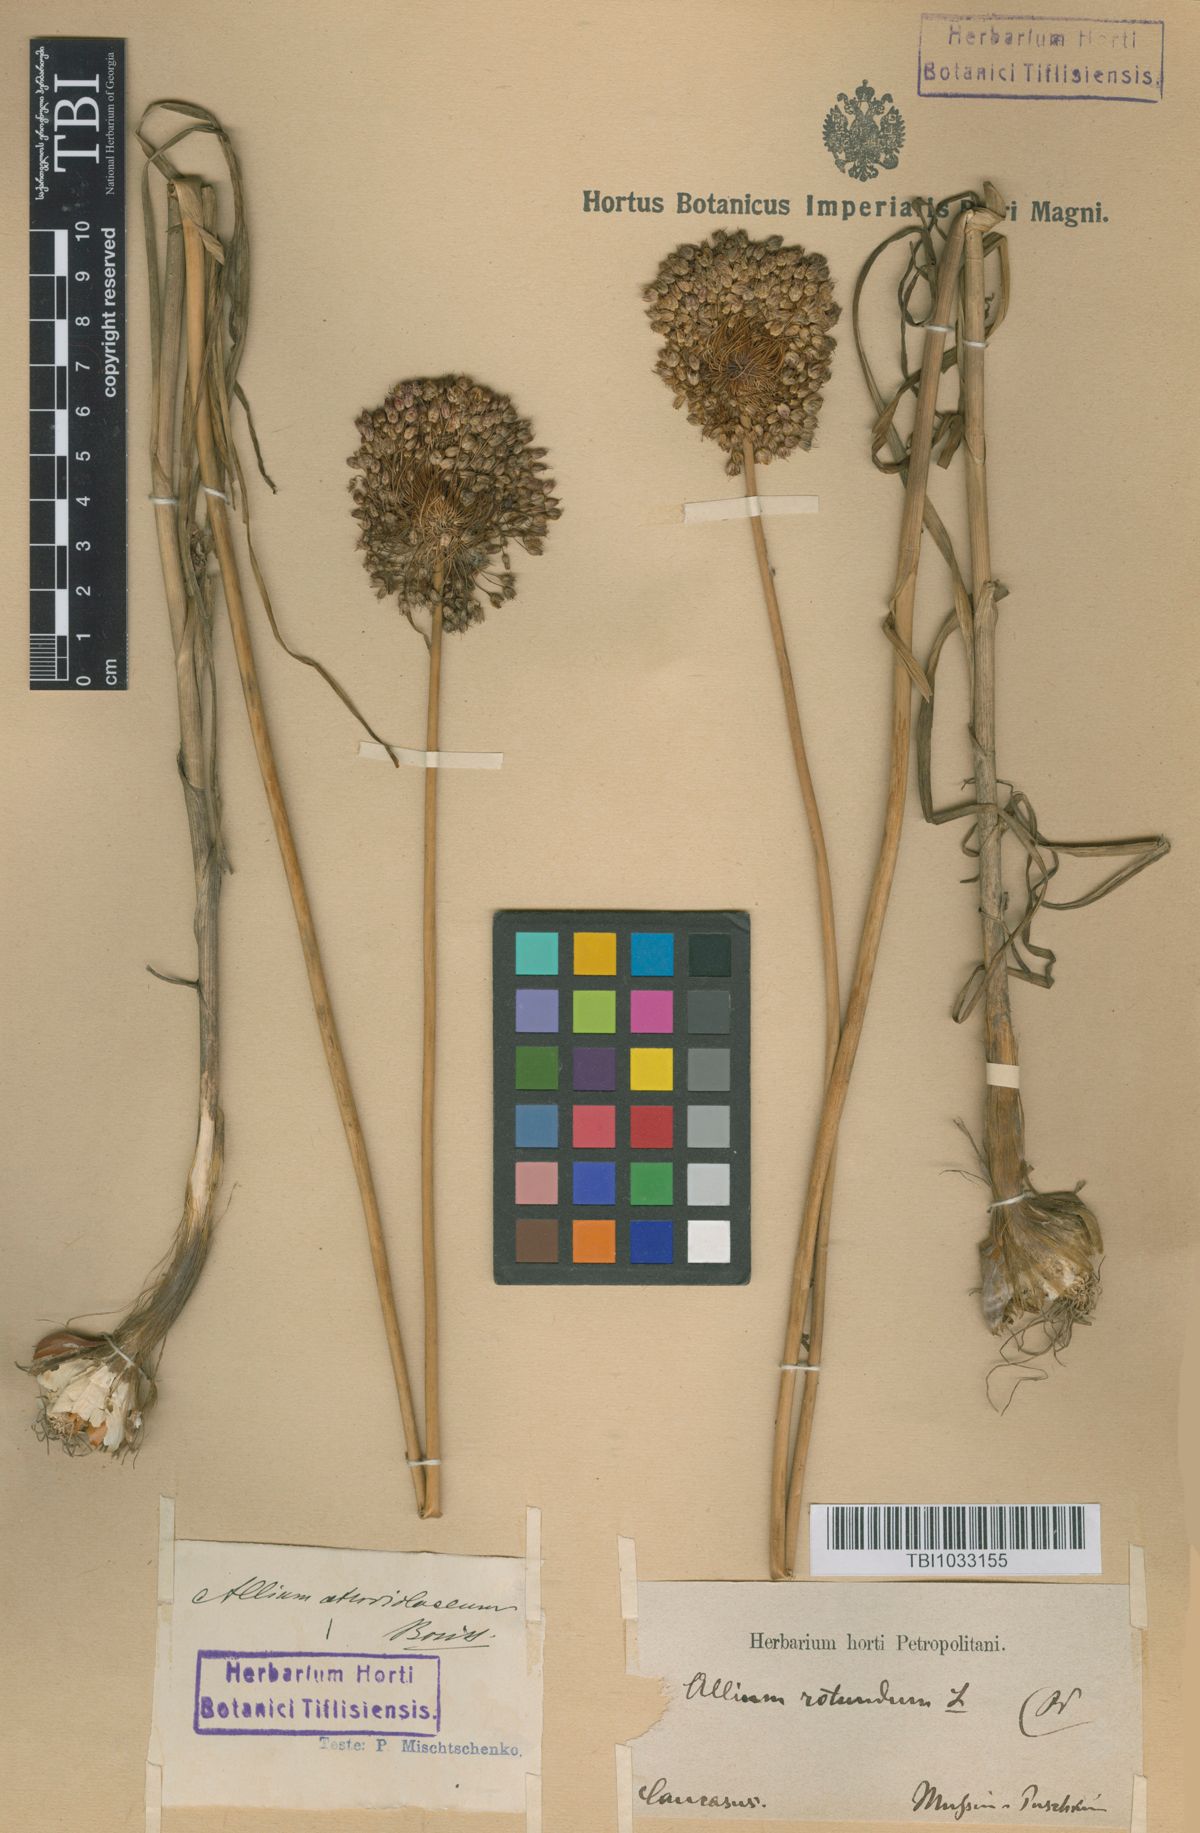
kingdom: Plantae
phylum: Tracheophyta
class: Liliopsida
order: Asparagales
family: Amaryllidaceae
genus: Allium
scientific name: Allium atroviolaceum
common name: Broadleaf wild leek
